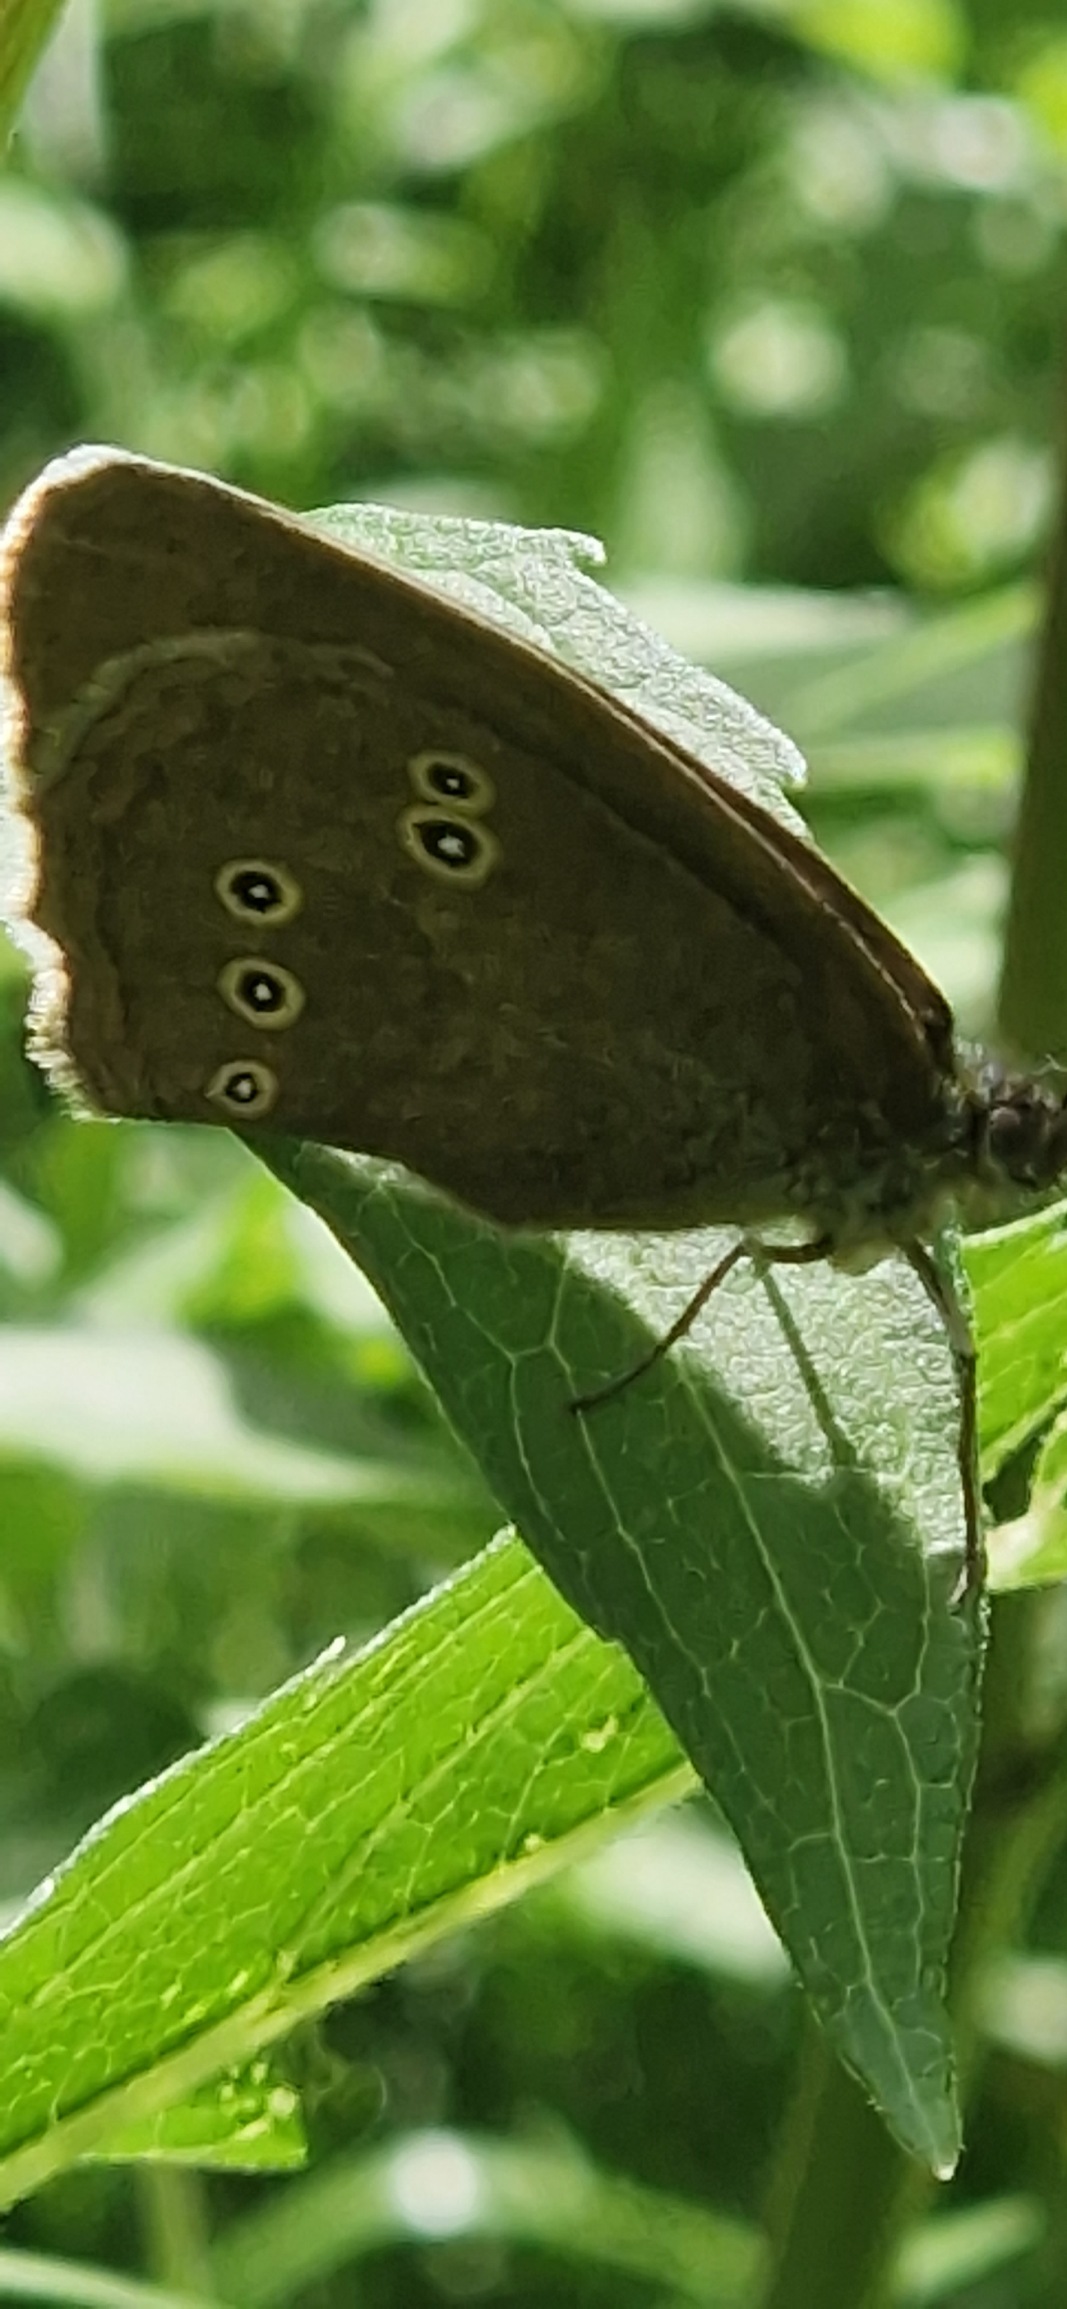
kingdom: Animalia
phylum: Arthropoda
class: Insecta
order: Lepidoptera
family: Nymphalidae
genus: Aphantopus
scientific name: Aphantopus hyperantus
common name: Engrandøje
